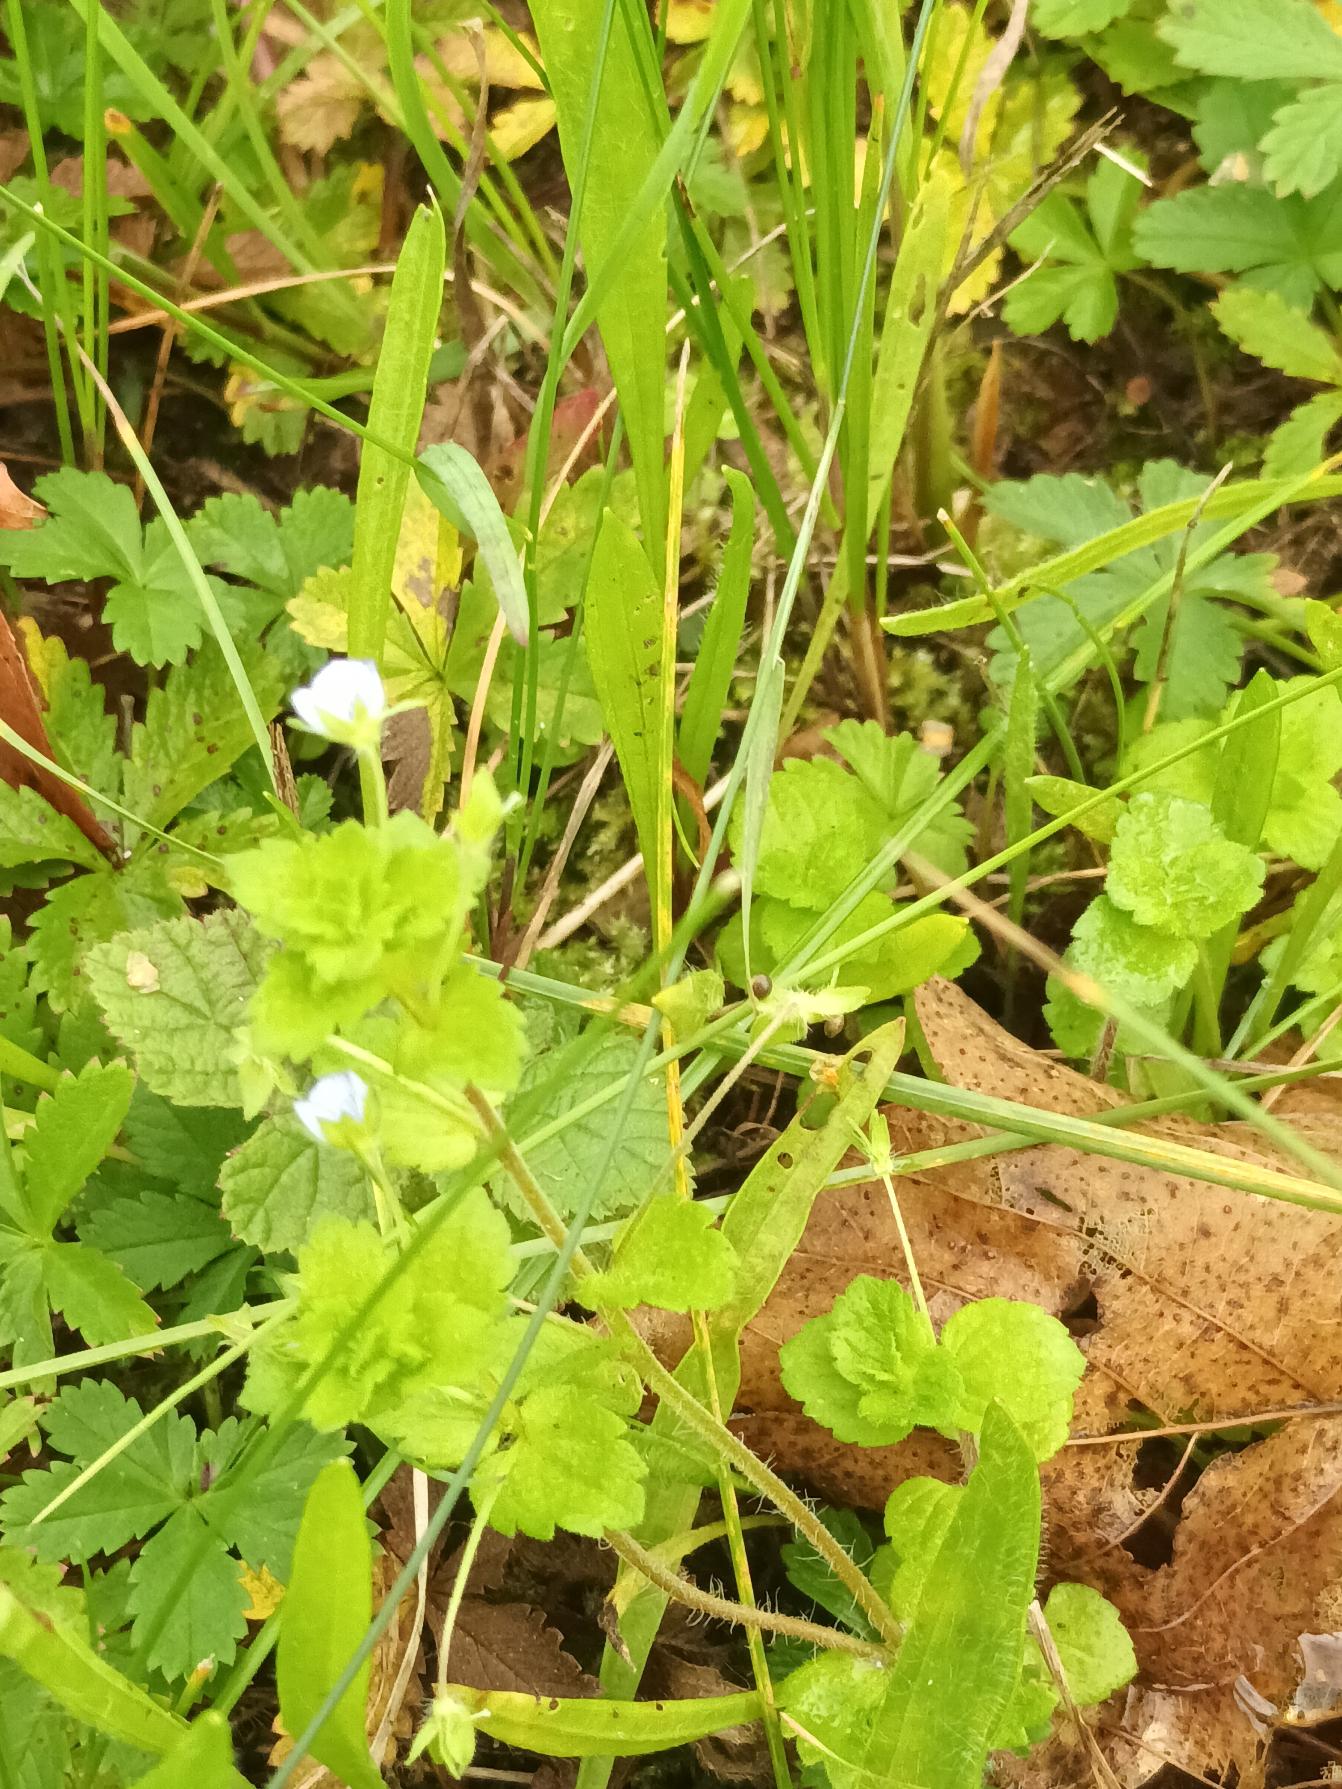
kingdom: Plantae
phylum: Tracheophyta
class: Magnoliopsida
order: Lamiales
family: Plantaginaceae
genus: Veronica
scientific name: Veronica persica
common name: Storkronet ærenpris
